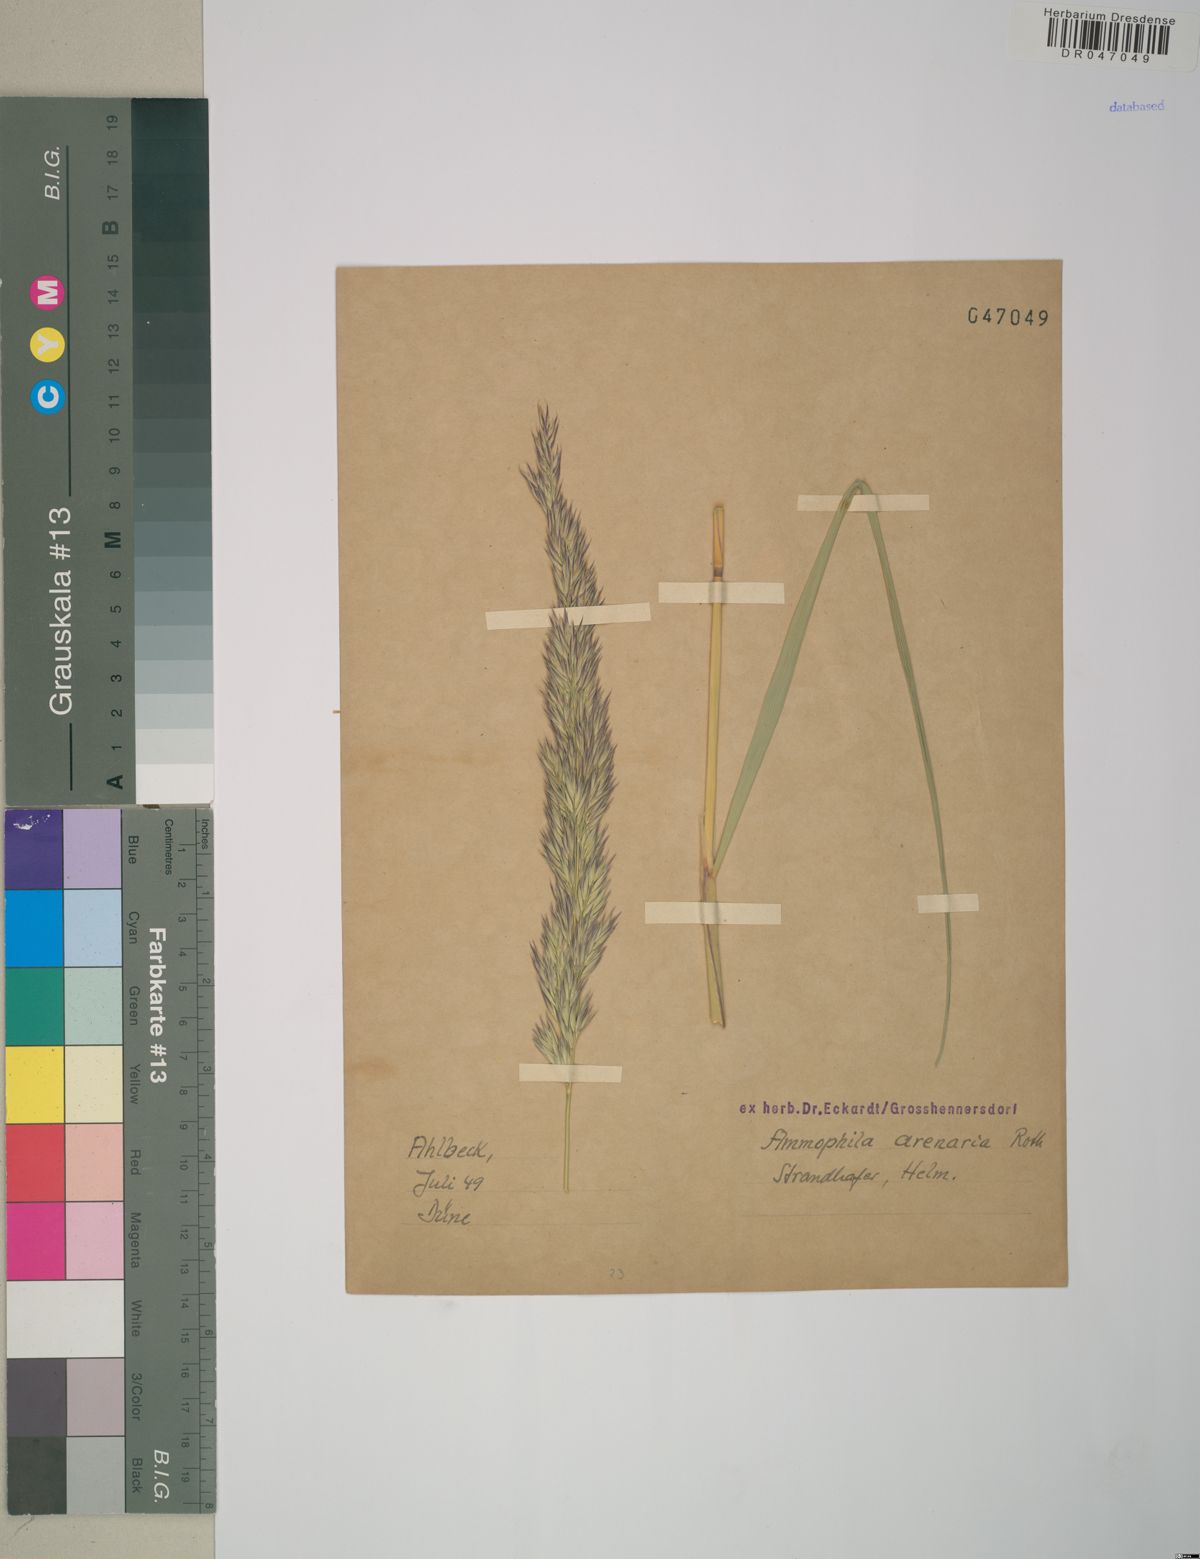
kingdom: Plantae
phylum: Tracheophyta
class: Liliopsida
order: Poales
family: Poaceae
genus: Calamagrostis
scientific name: Calamagrostis arenaria
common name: European beachgrass
